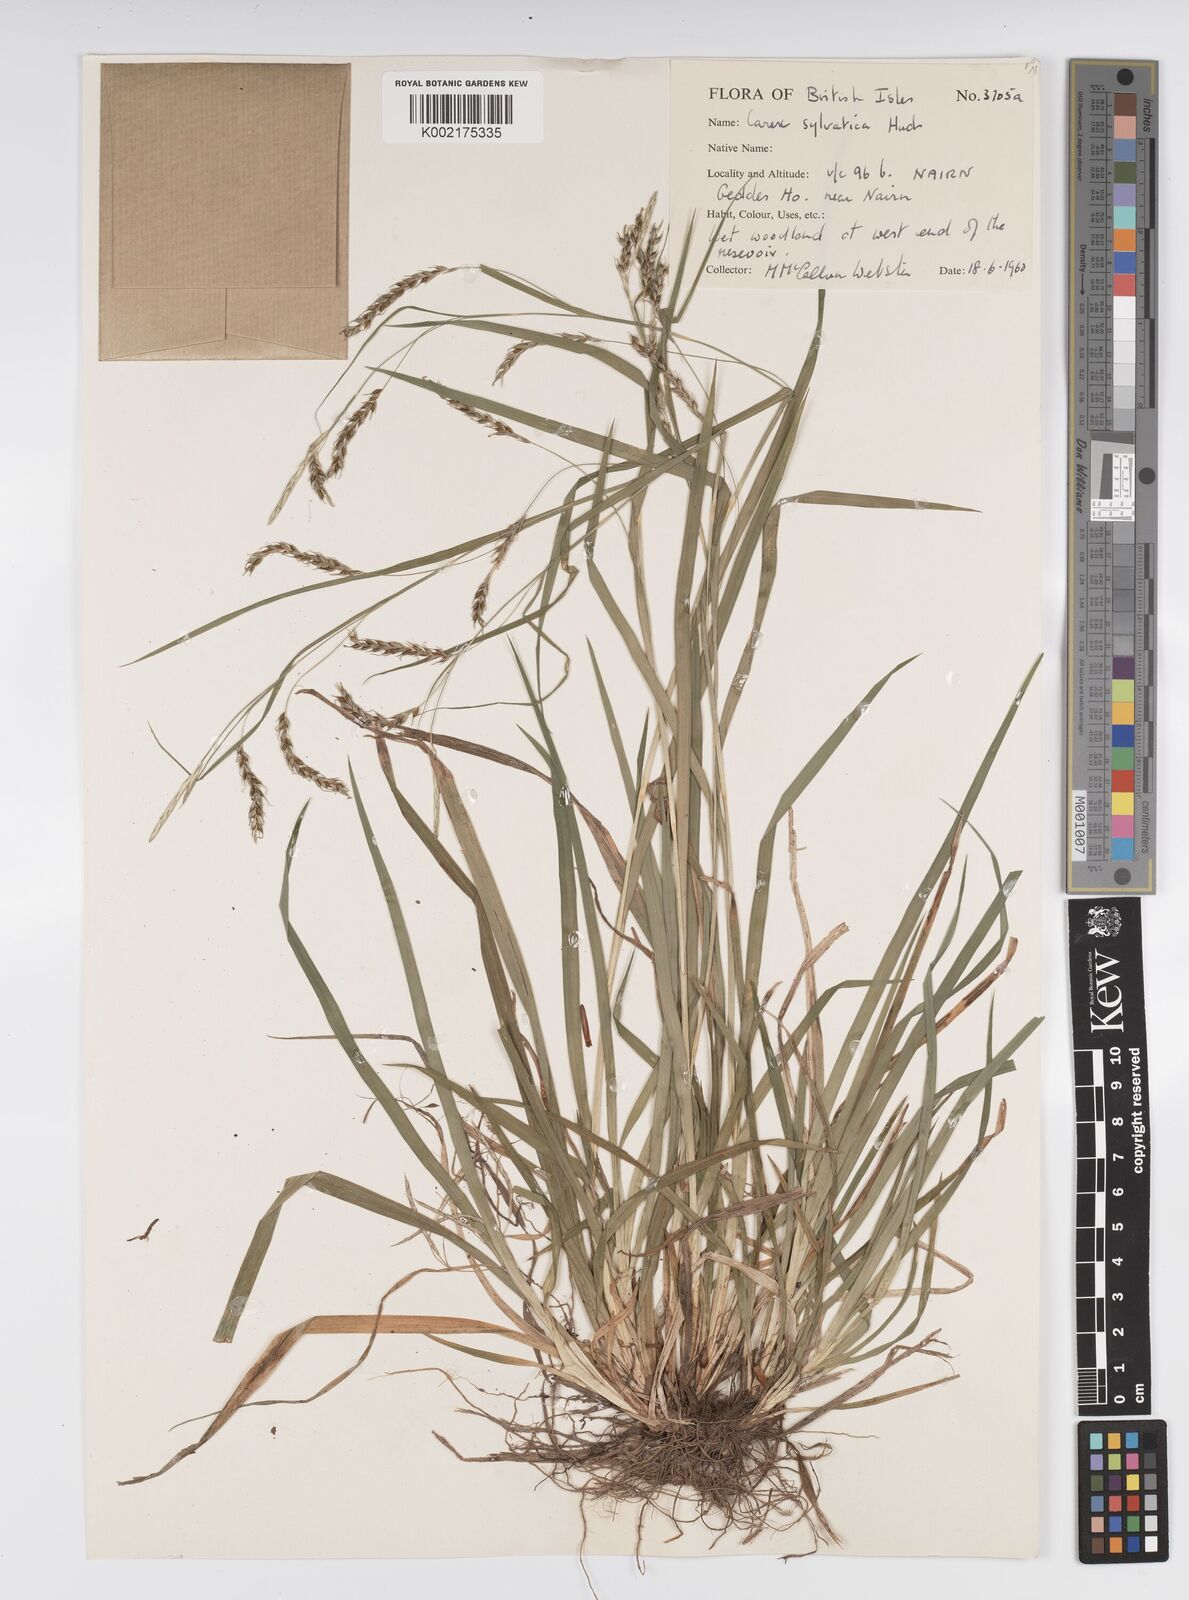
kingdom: Plantae
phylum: Tracheophyta
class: Liliopsida
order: Poales
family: Cyperaceae
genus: Carex
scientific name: Carex sylvatica
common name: Wood-sedge
